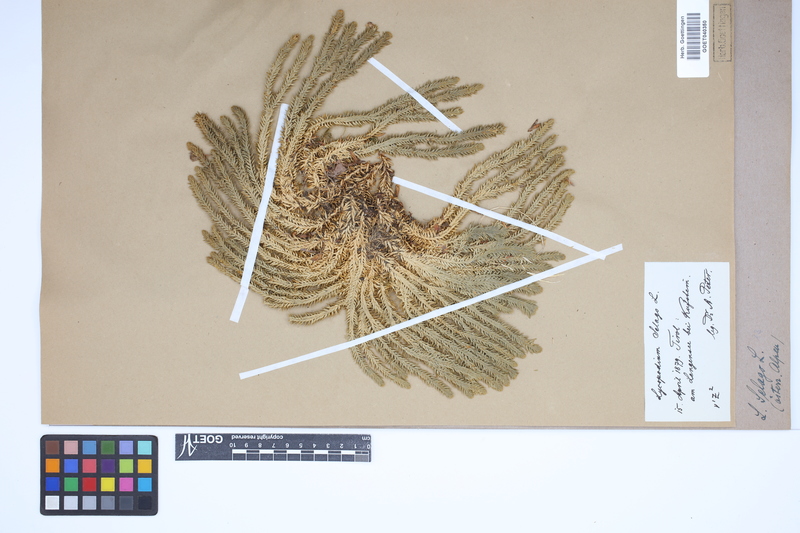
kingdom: Plantae
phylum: Tracheophyta
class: Lycopodiopsida
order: Lycopodiales
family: Lycopodiaceae
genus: Huperzia
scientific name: Huperzia selago
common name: Northern firmoss
